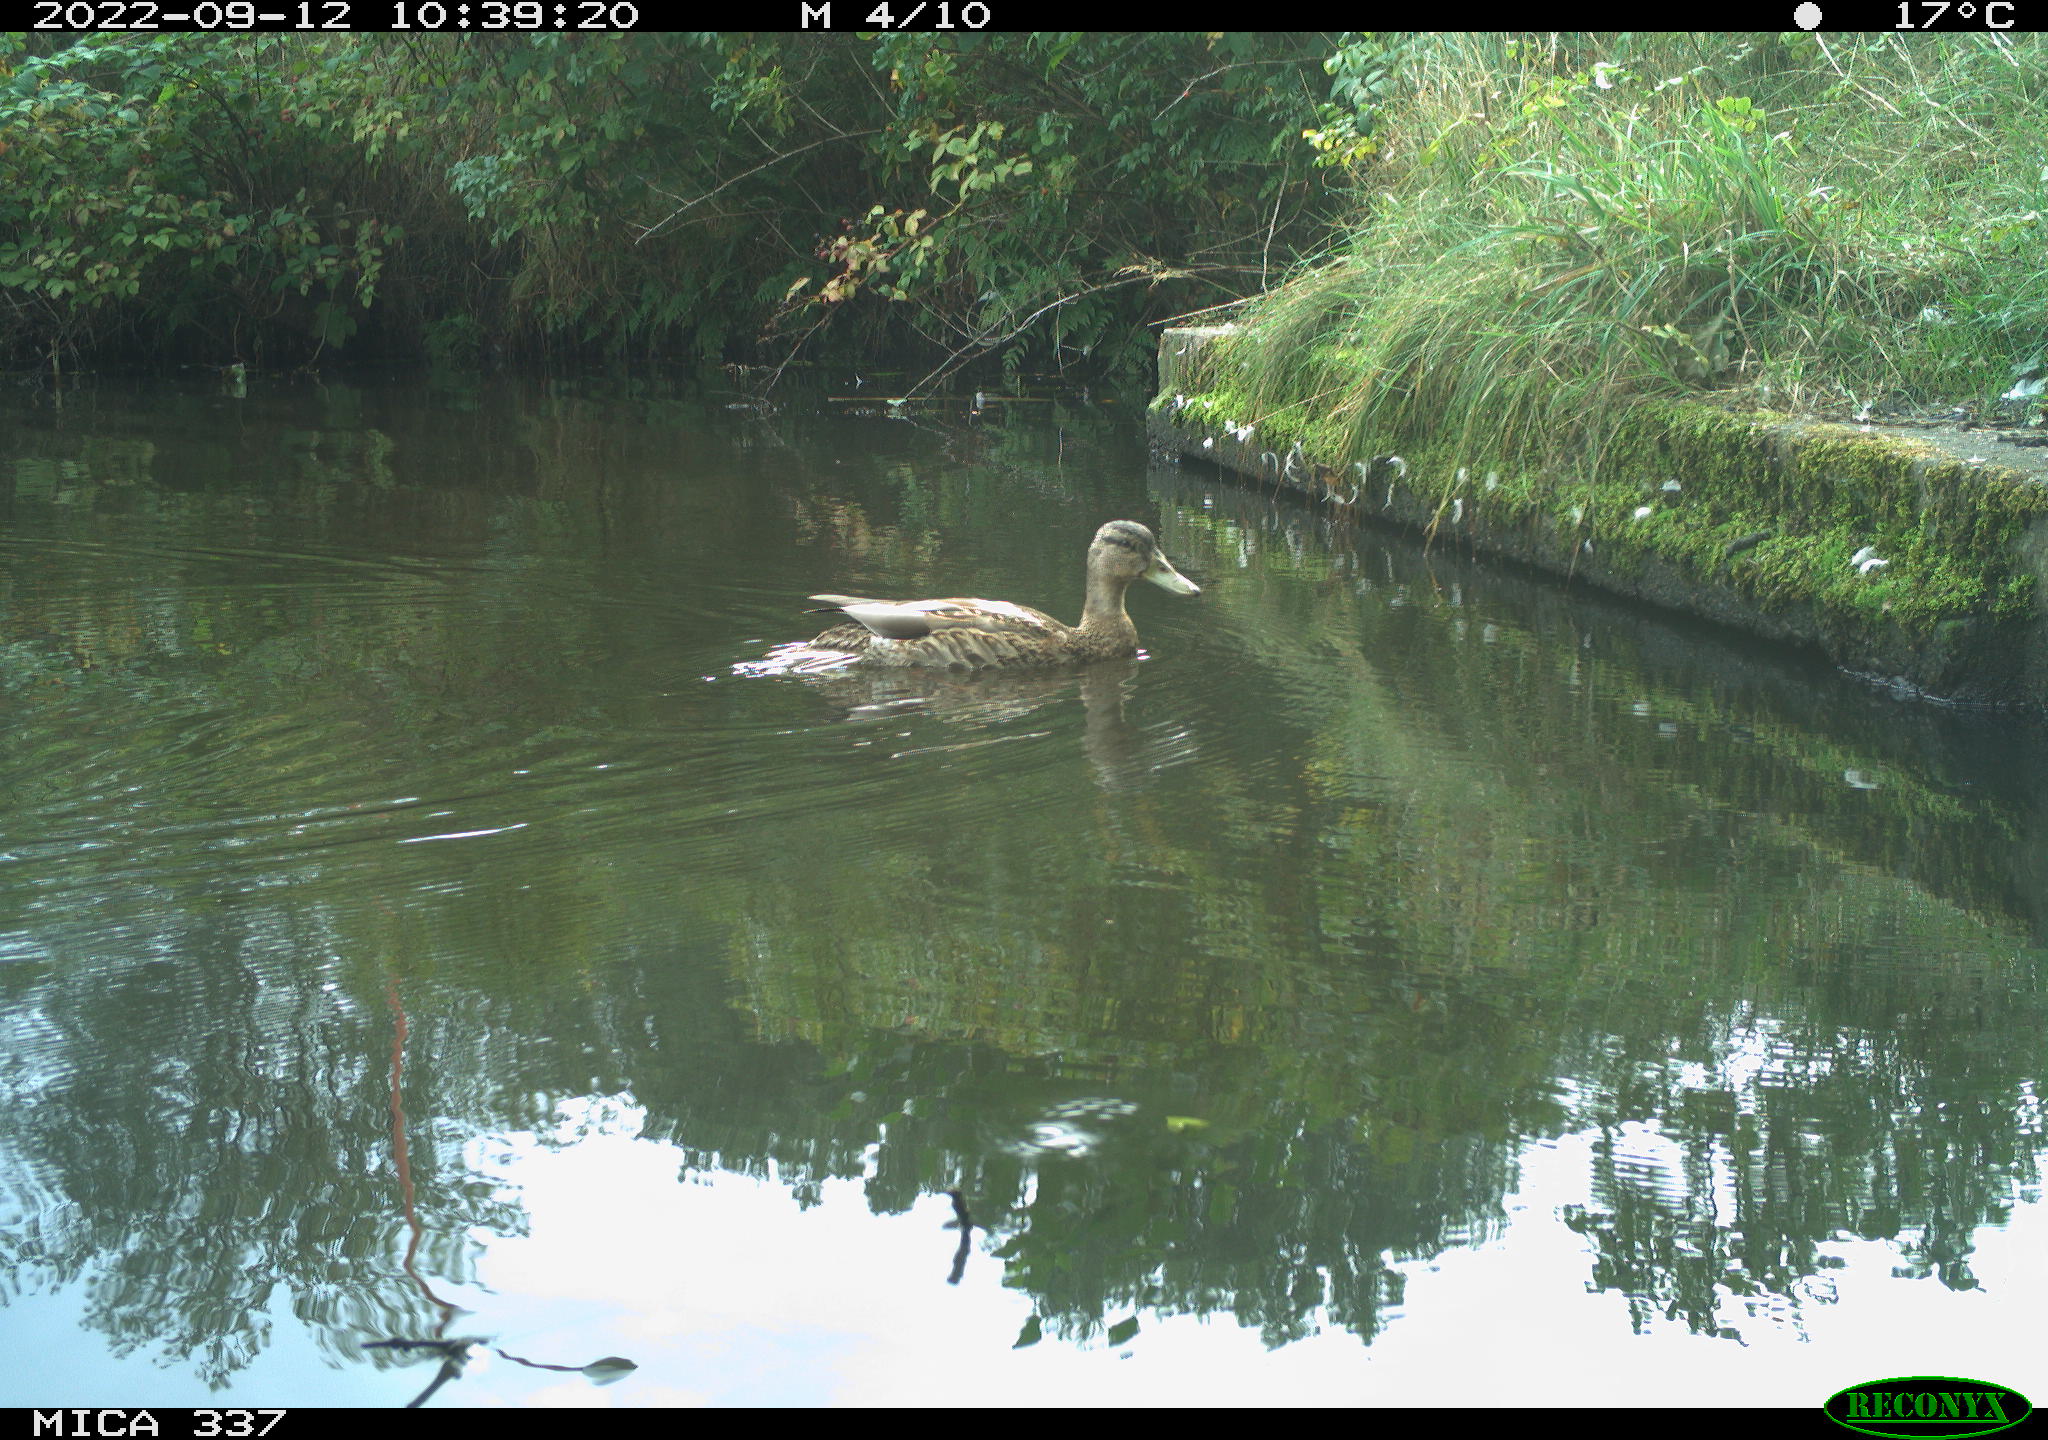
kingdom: Animalia
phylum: Chordata
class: Aves
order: Anseriformes
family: Anatidae
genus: Anas
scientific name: Anas platyrhynchos
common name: Mallard
